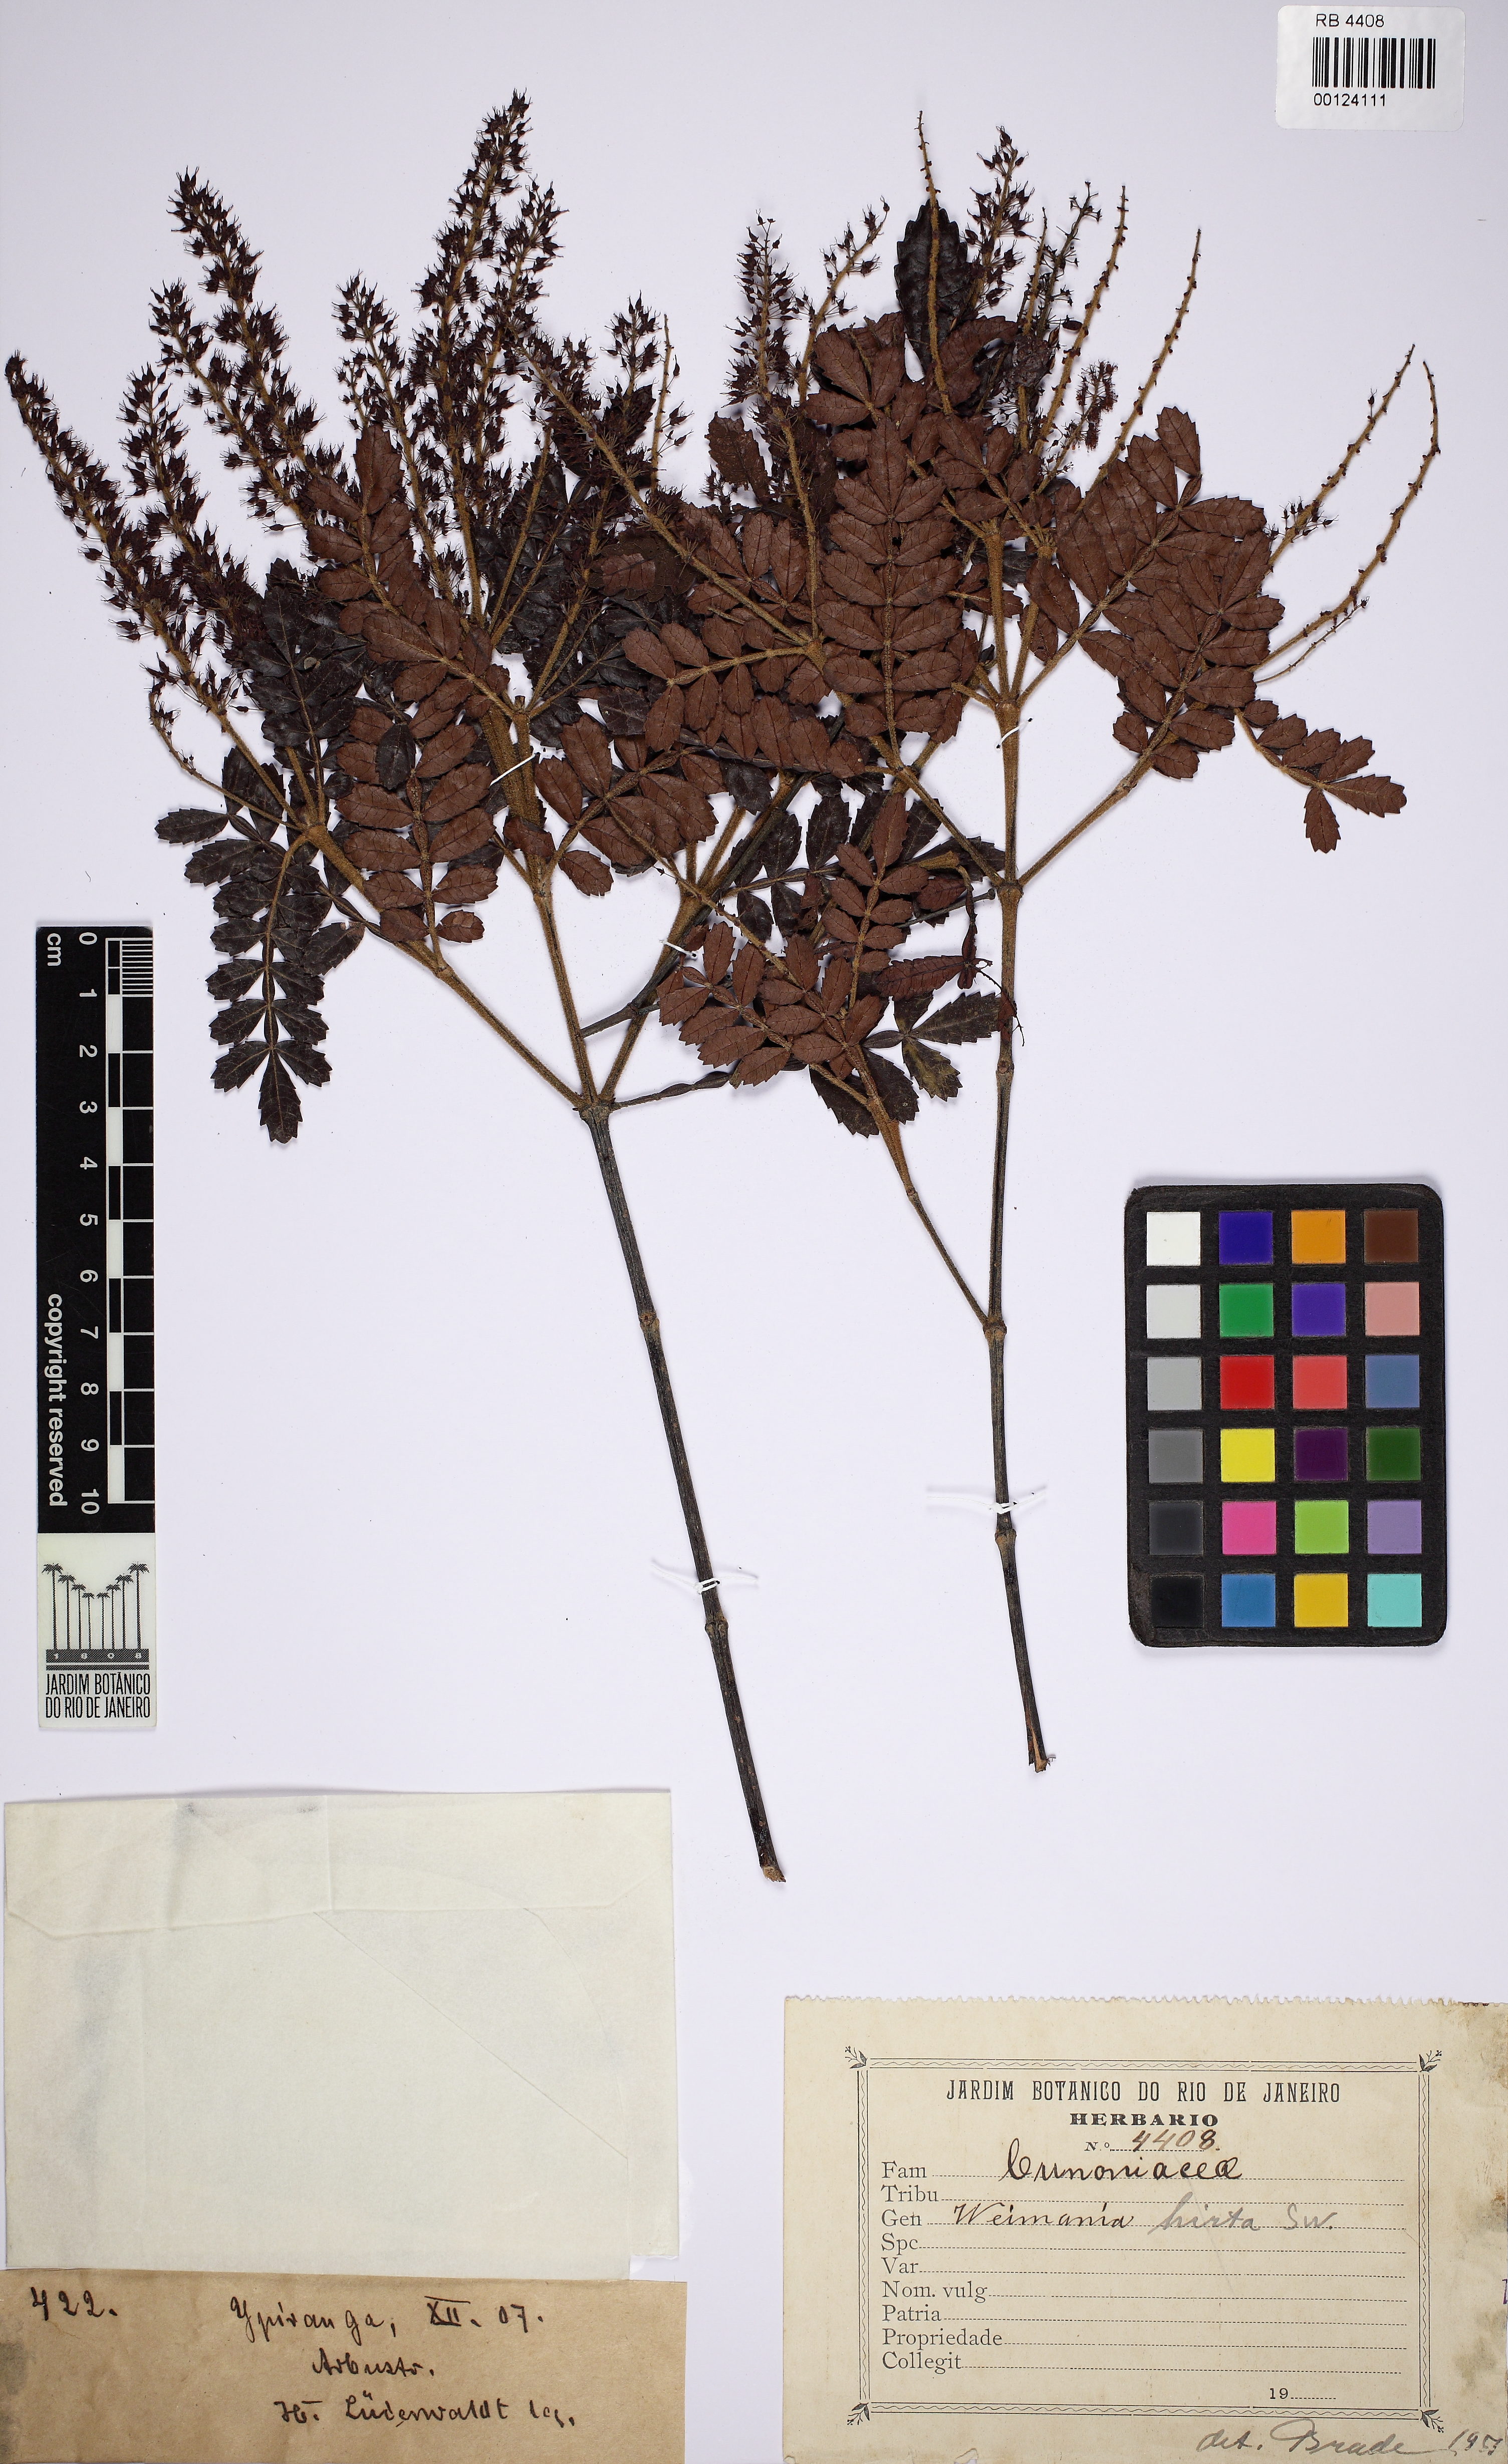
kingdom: Plantae
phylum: Tracheophyta
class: Magnoliopsida
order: Oxalidales
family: Cunoniaceae
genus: Weinmannia
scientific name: Weinmannia pinnata
